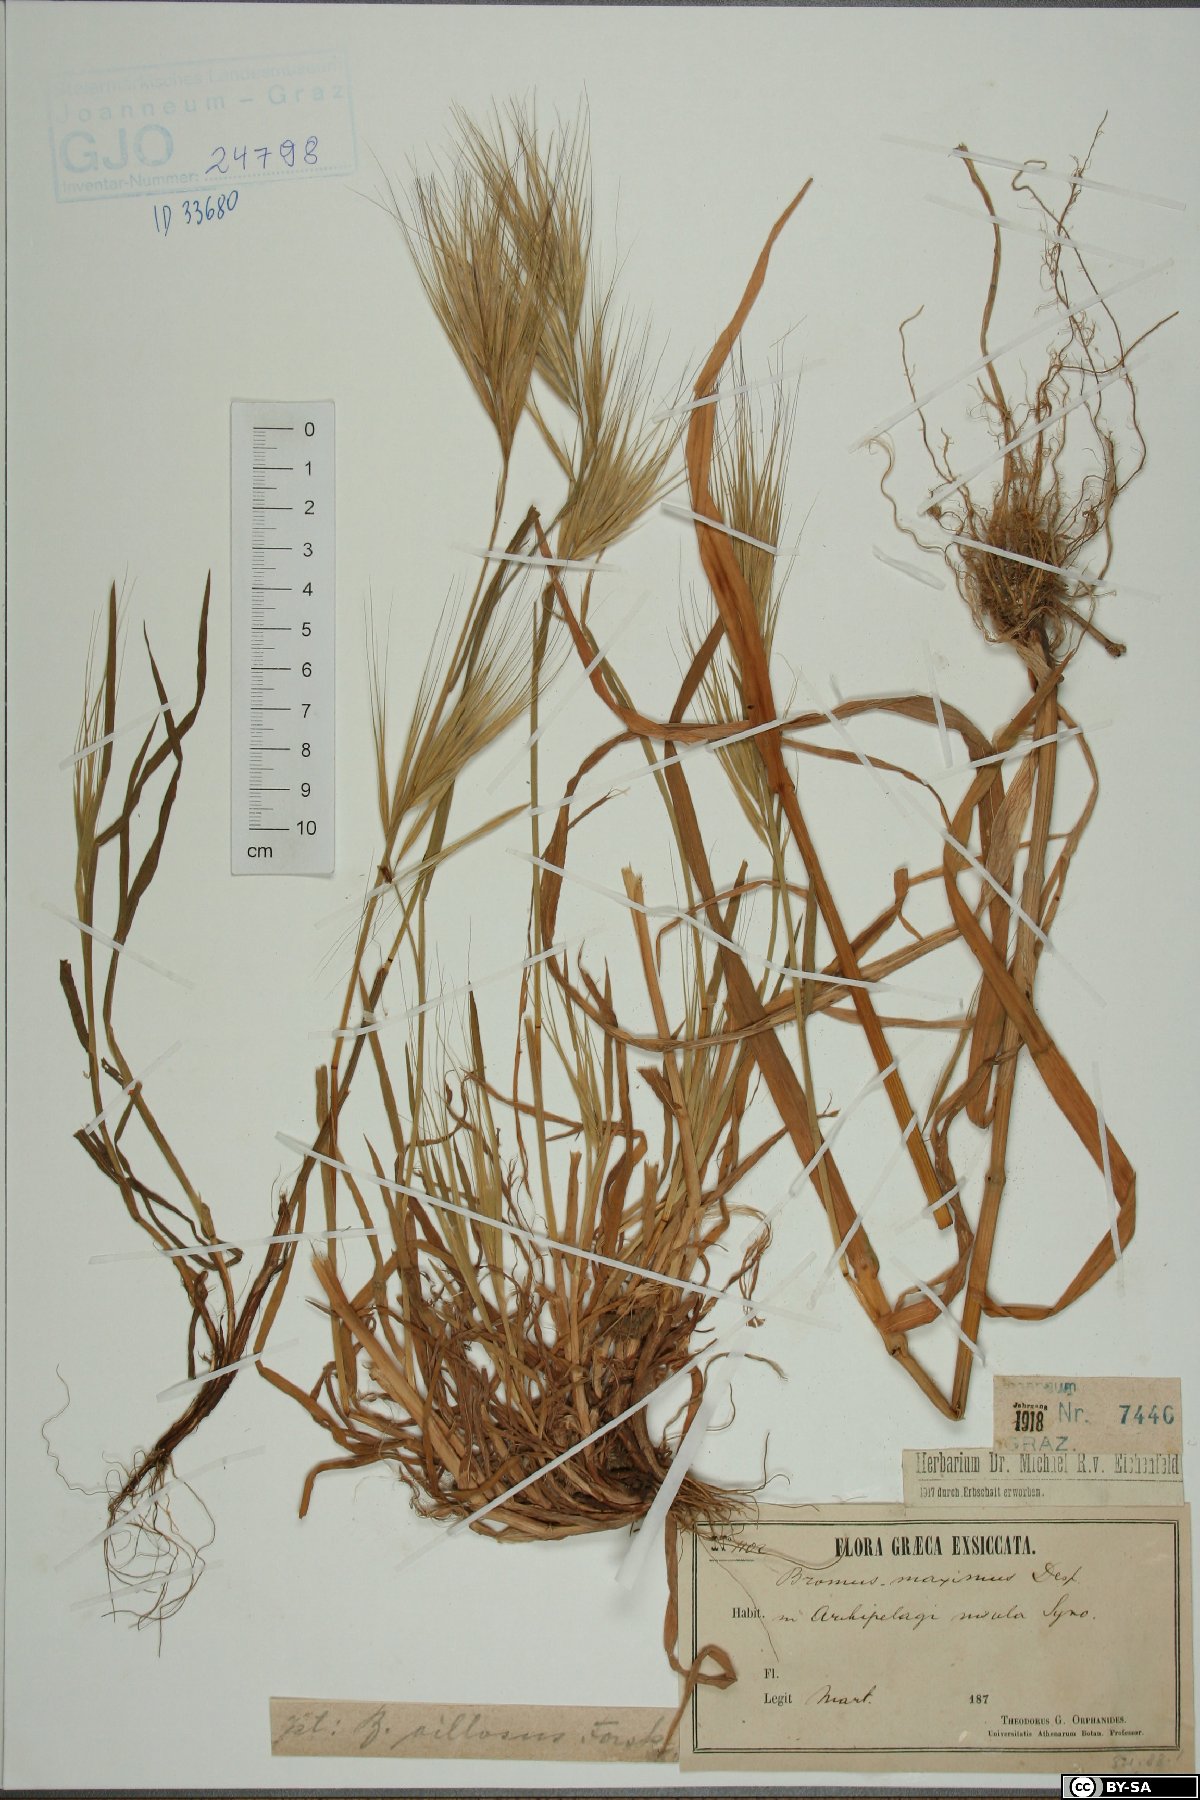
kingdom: Plantae
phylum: Tracheophyta
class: Liliopsida
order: Poales
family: Poaceae
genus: Bromus
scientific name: Bromus rigidus
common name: Ripgut brome
